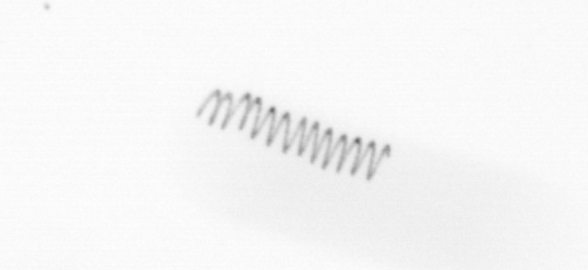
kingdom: Chromista
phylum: Ochrophyta
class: Bacillariophyceae
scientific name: Bacillariophyceae
